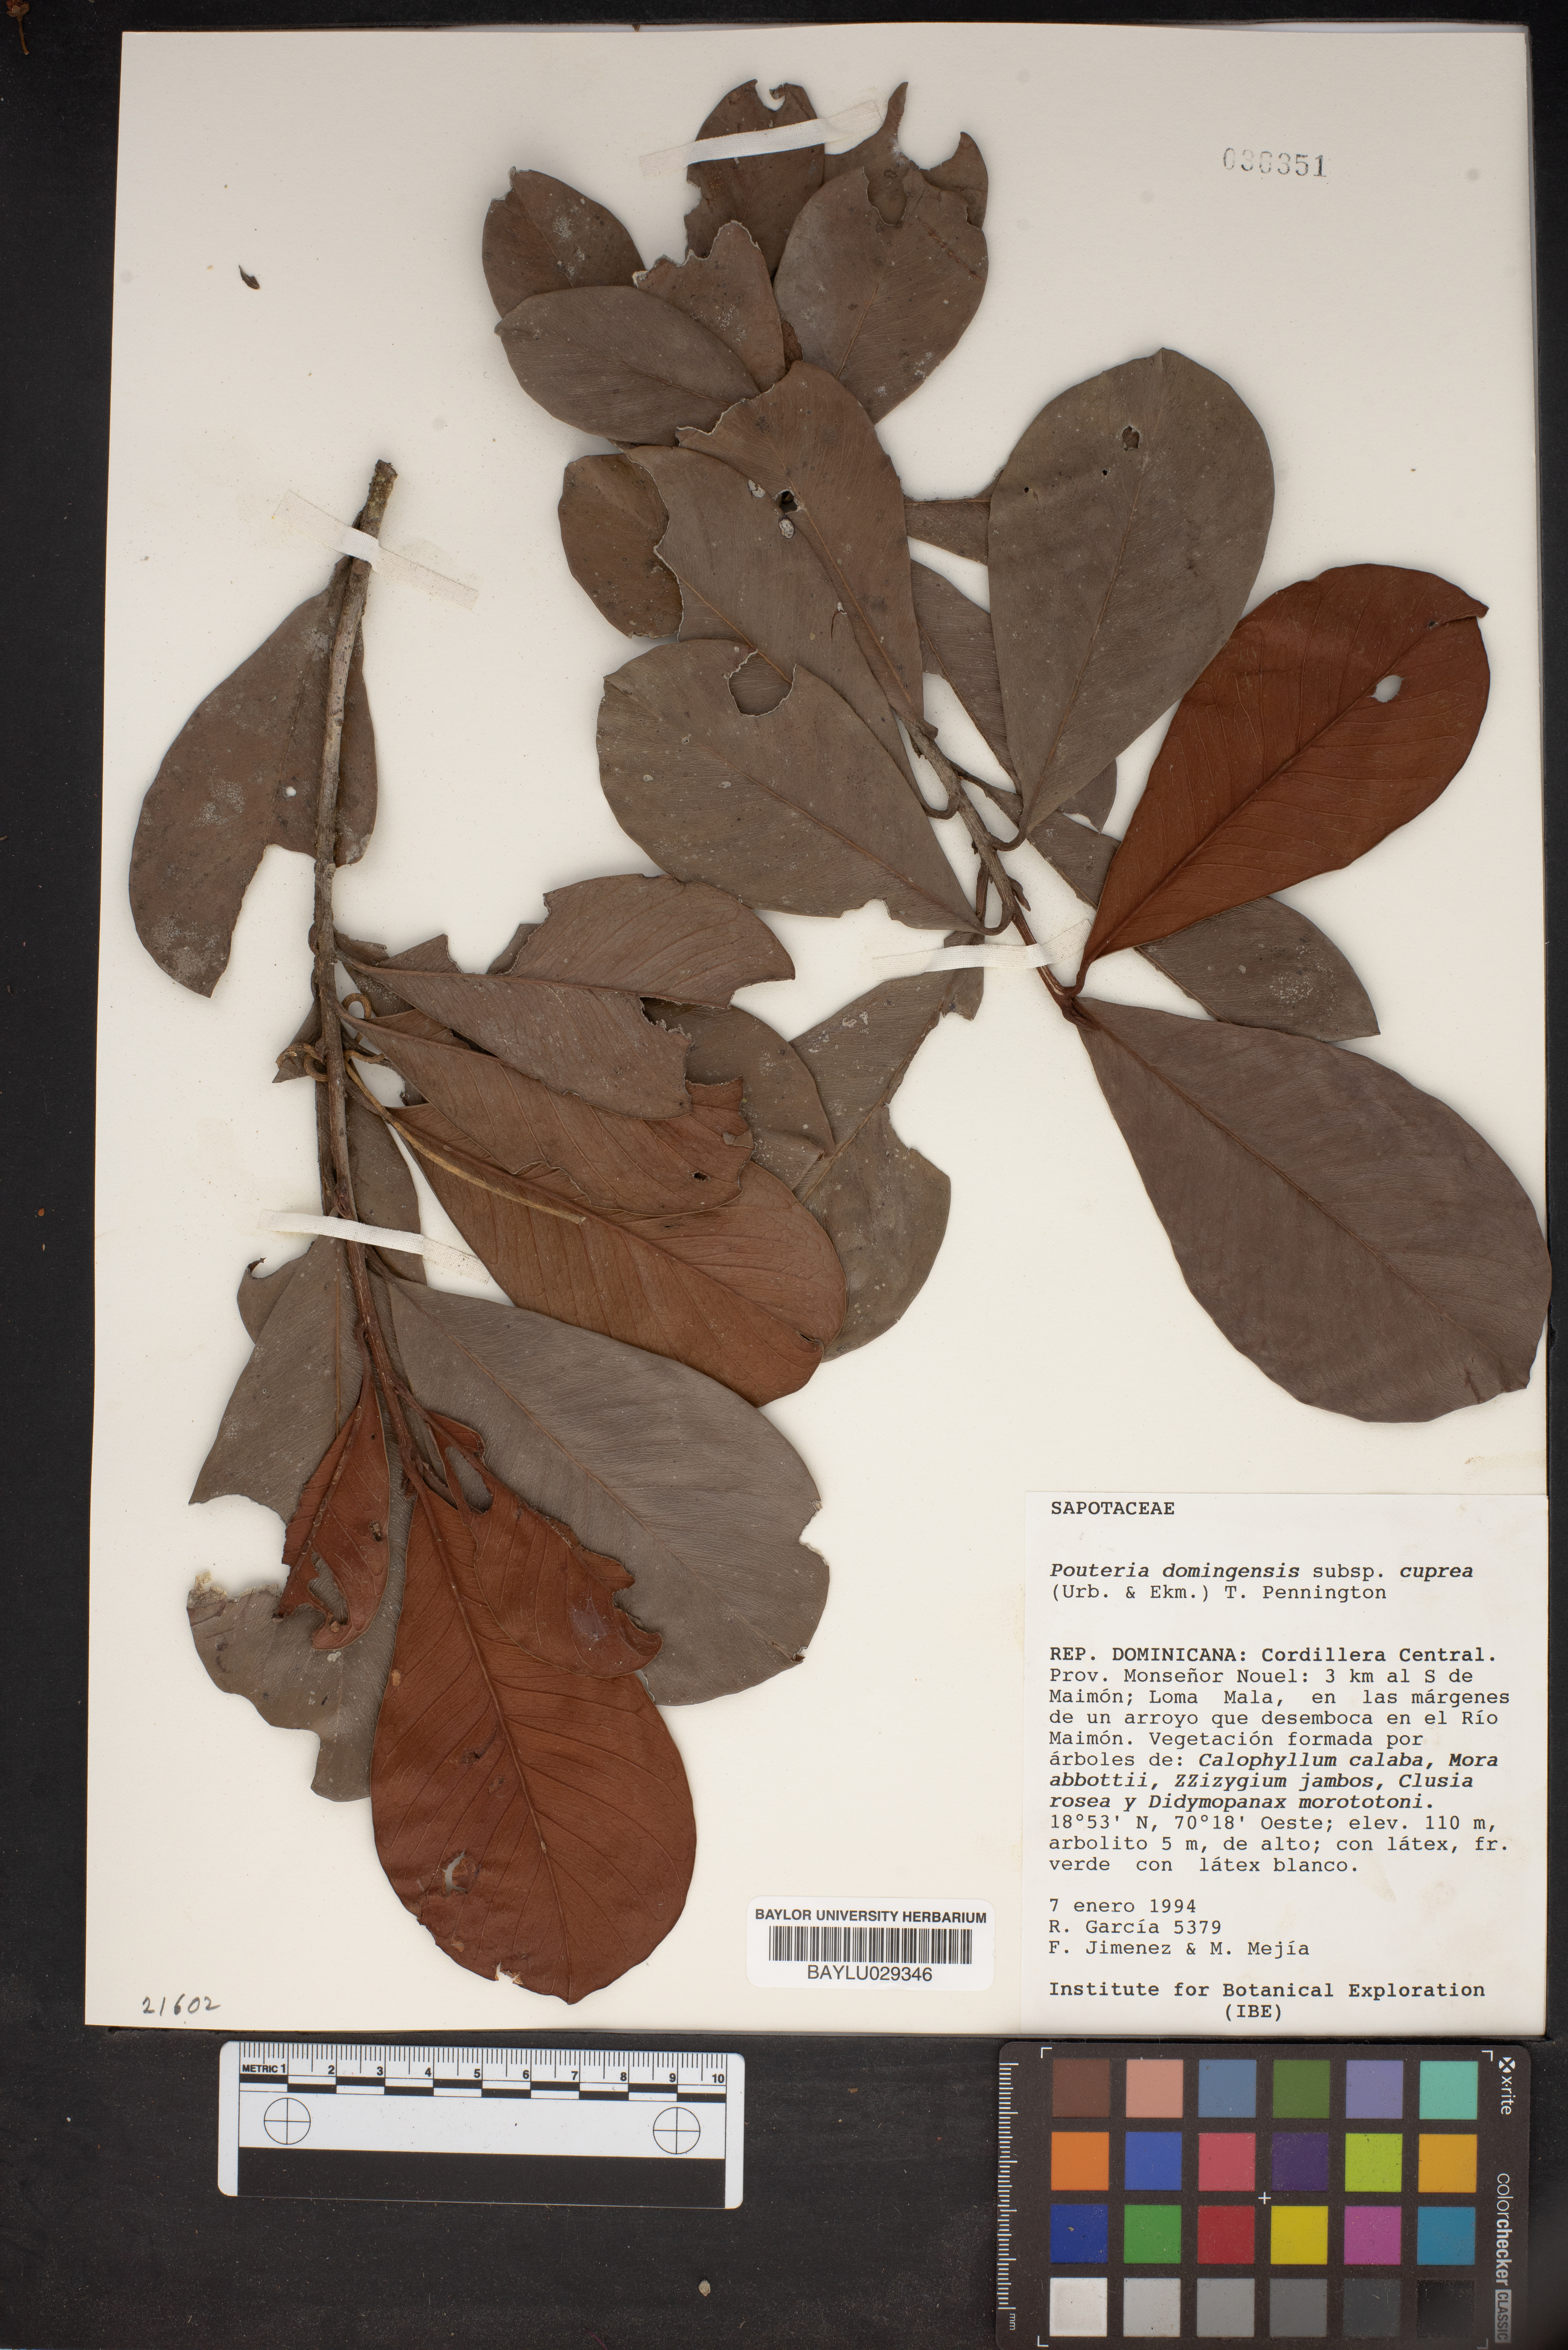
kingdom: Plantae
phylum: Tracheophyta
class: Magnoliopsida
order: Ericales
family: Sapotaceae
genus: Pouteria
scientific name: Pouteria dominigensis
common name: Jacana
